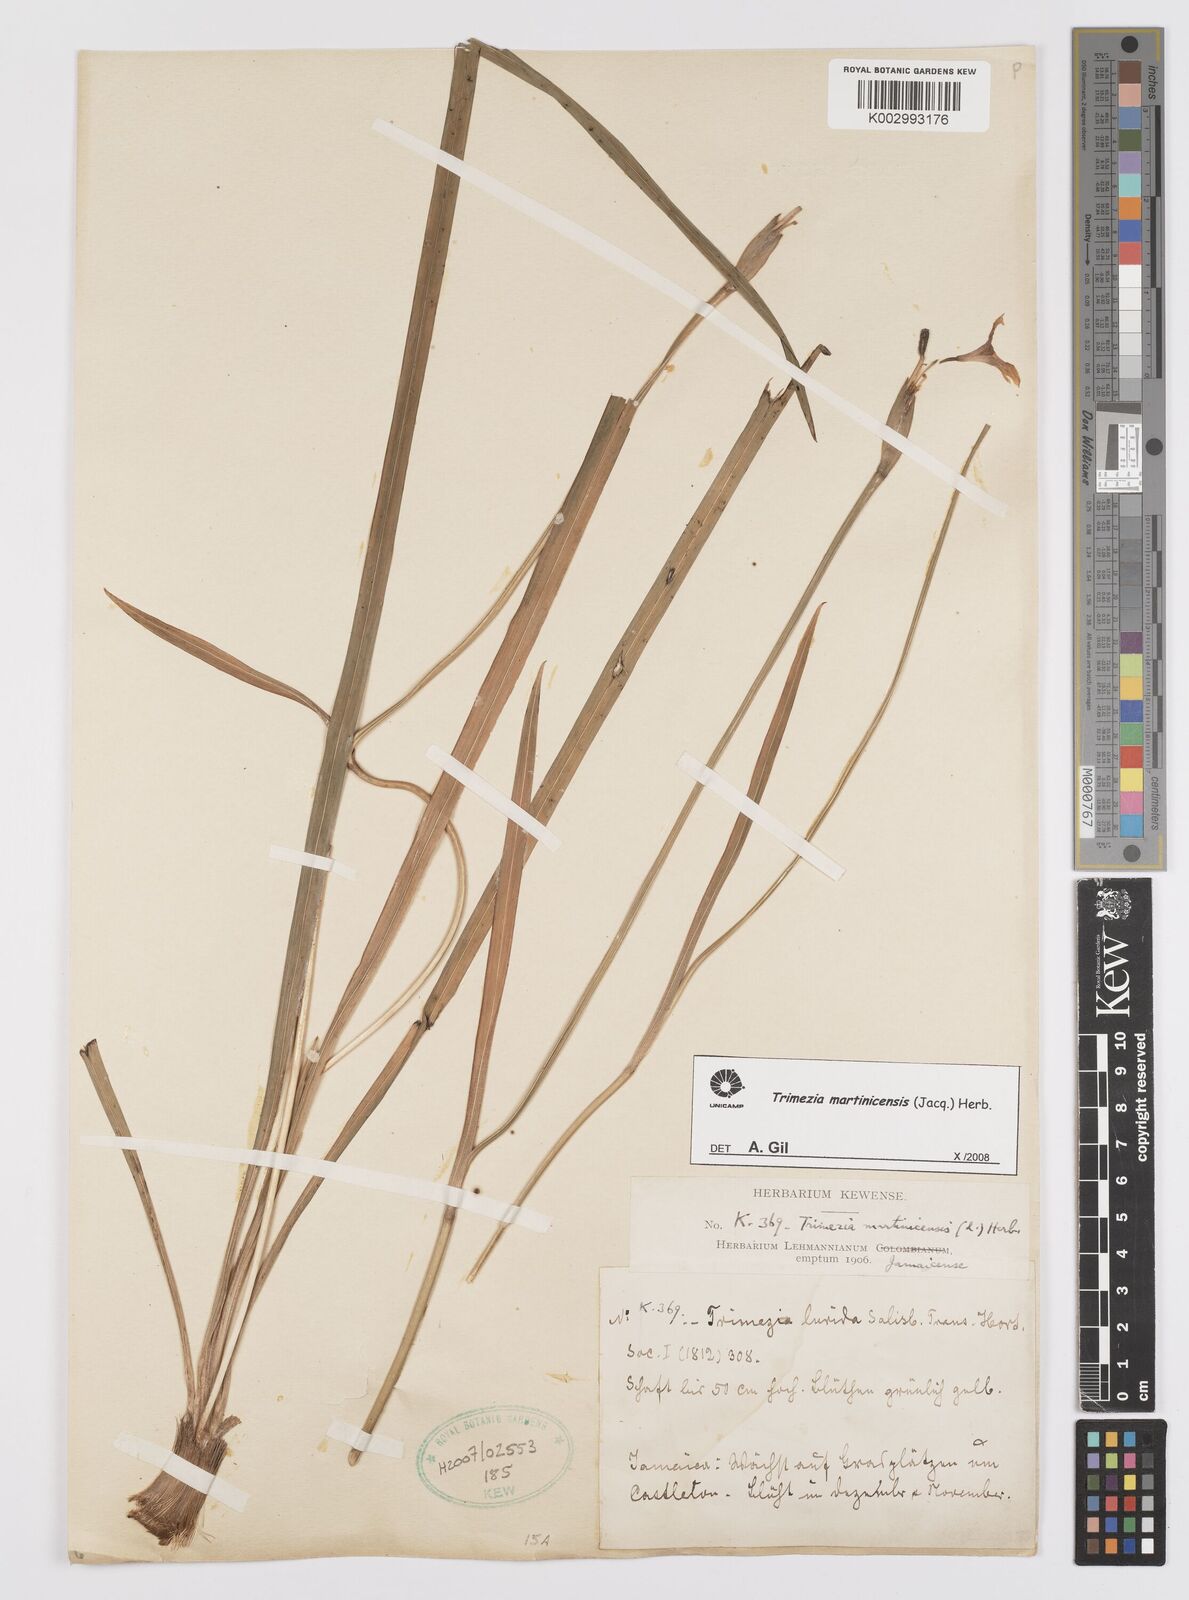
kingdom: Plantae
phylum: Tracheophyta
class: Liliopsida
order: Asparagales
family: Iridaceae
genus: Trimezia
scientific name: Trimezia
